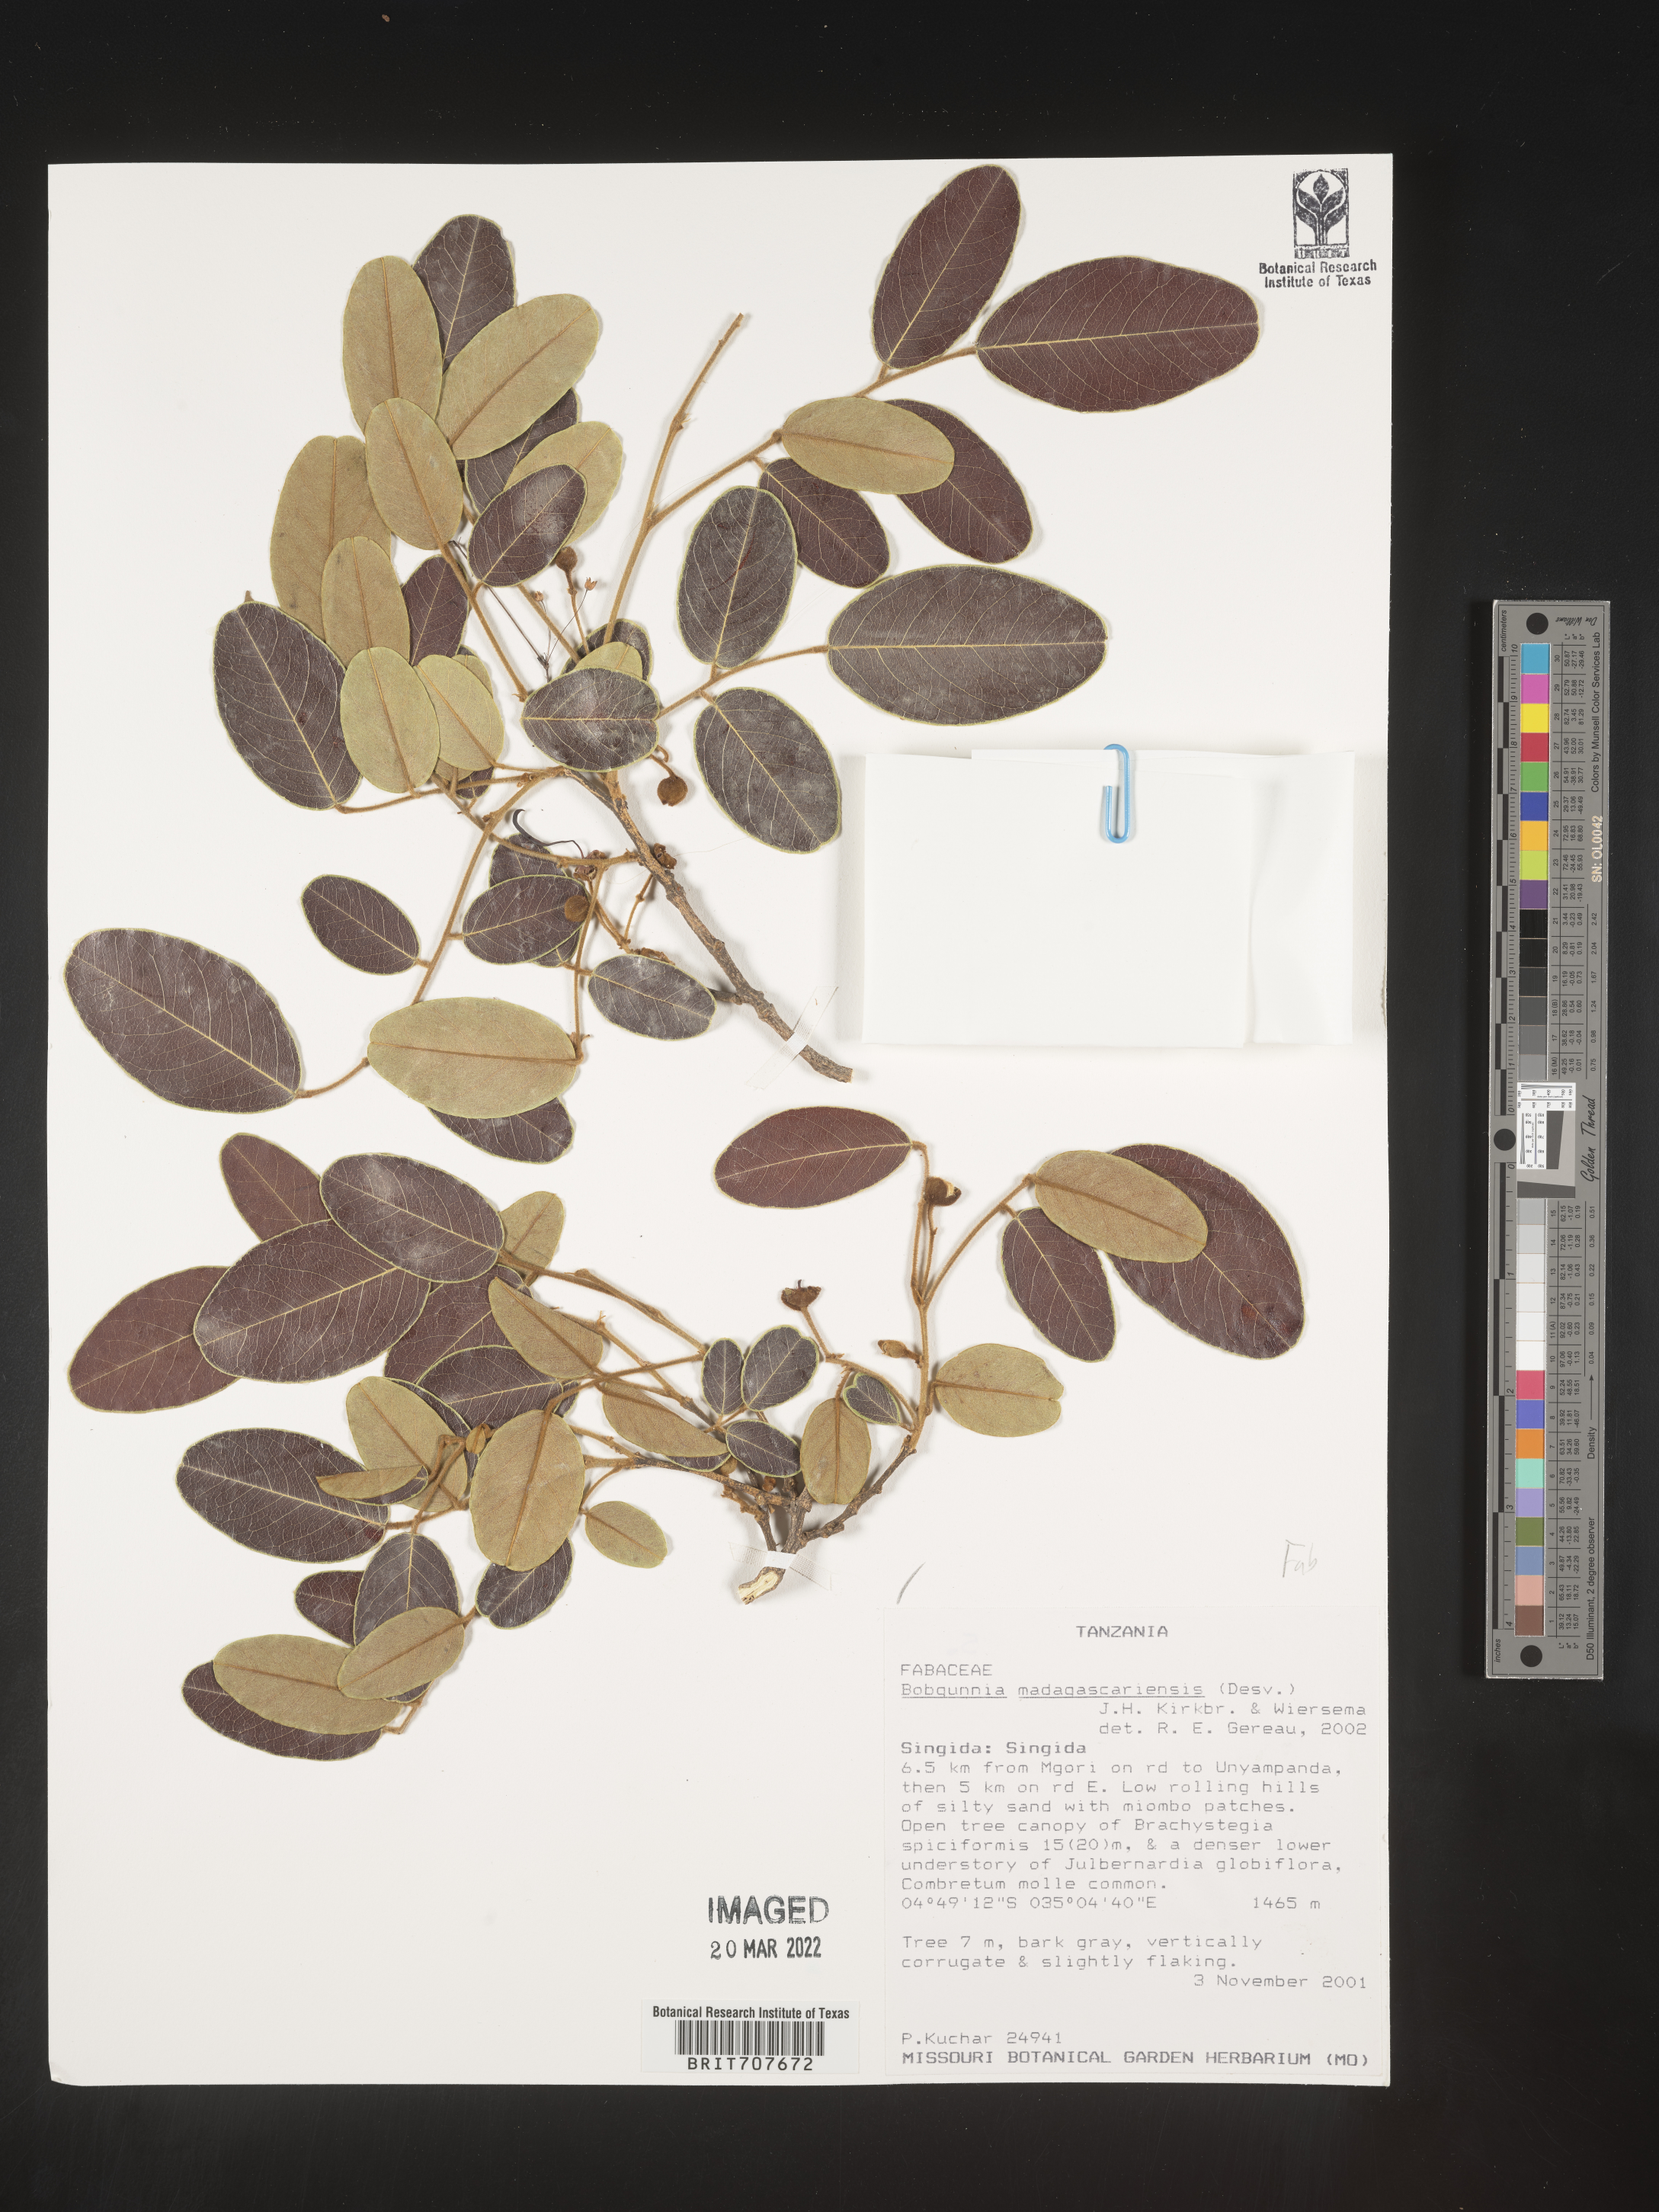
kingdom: Plantae
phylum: Tracheophyta
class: Magnoliopsida
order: Fabales
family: Fabaceae
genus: Bobgunnia
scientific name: Bobgunnia
